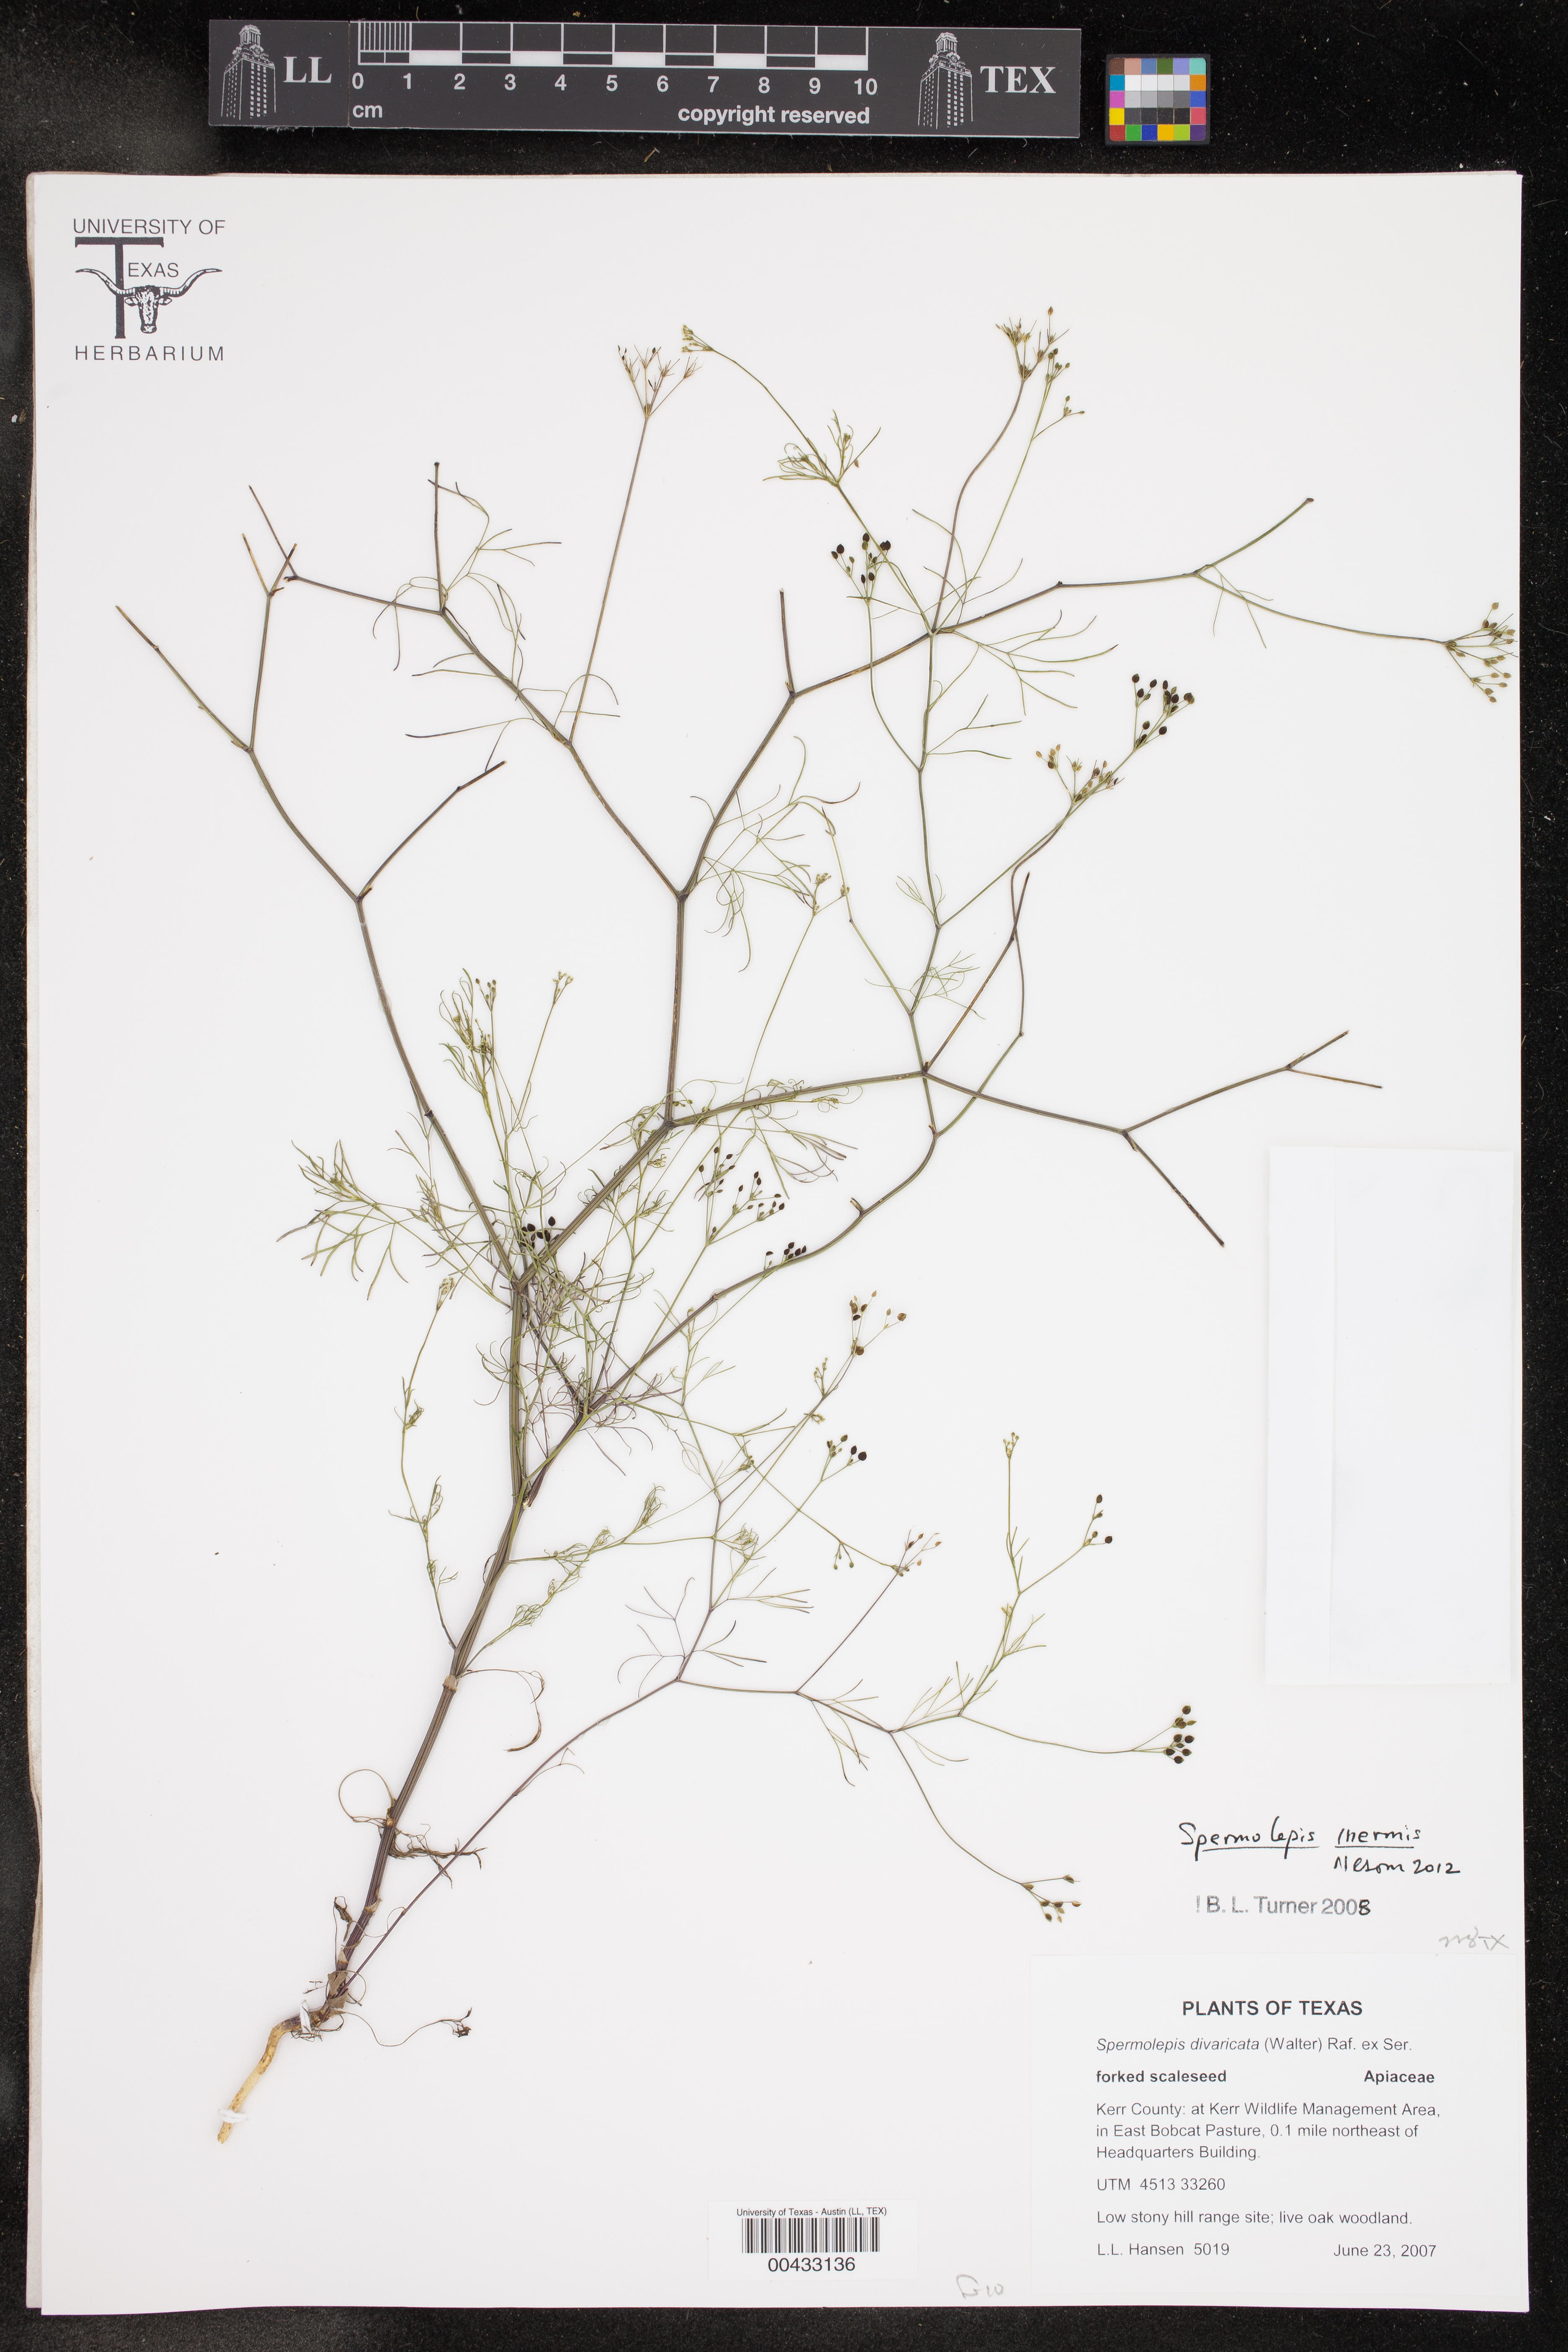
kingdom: Plantae
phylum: Tracheophyta
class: Magnoliopsida
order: Apiales
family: Apiaceae
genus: Spermolepis
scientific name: Spermolepis inermis
